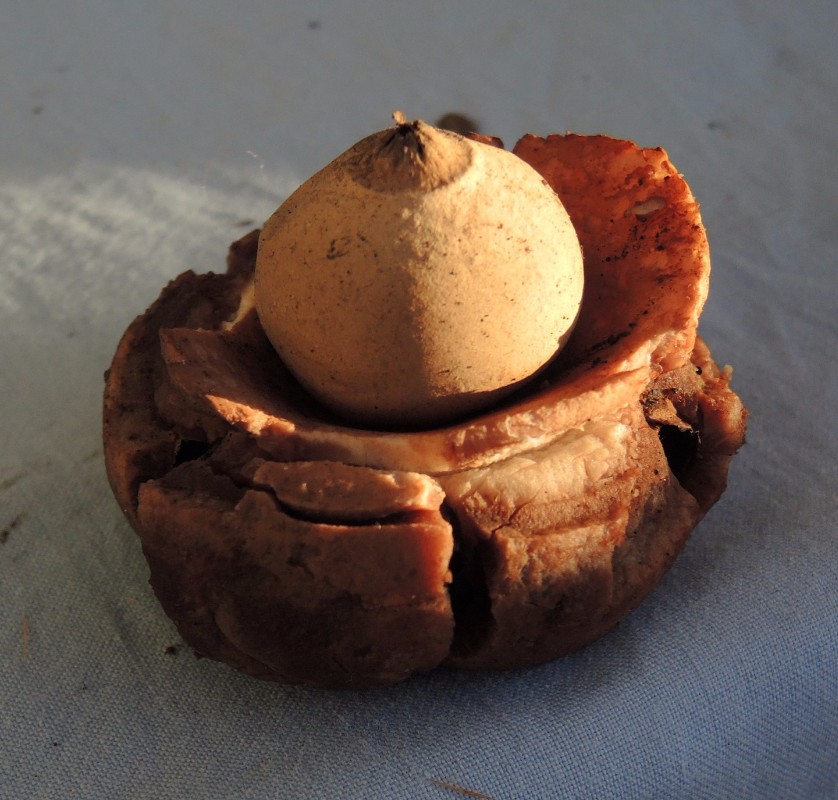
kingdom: Fungi
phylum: Basidiomycota
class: Agaricomycetes
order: Geastrales
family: Geastraceae
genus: Geastrum
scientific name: Geastrum michelianum
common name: kødet stjernebold
